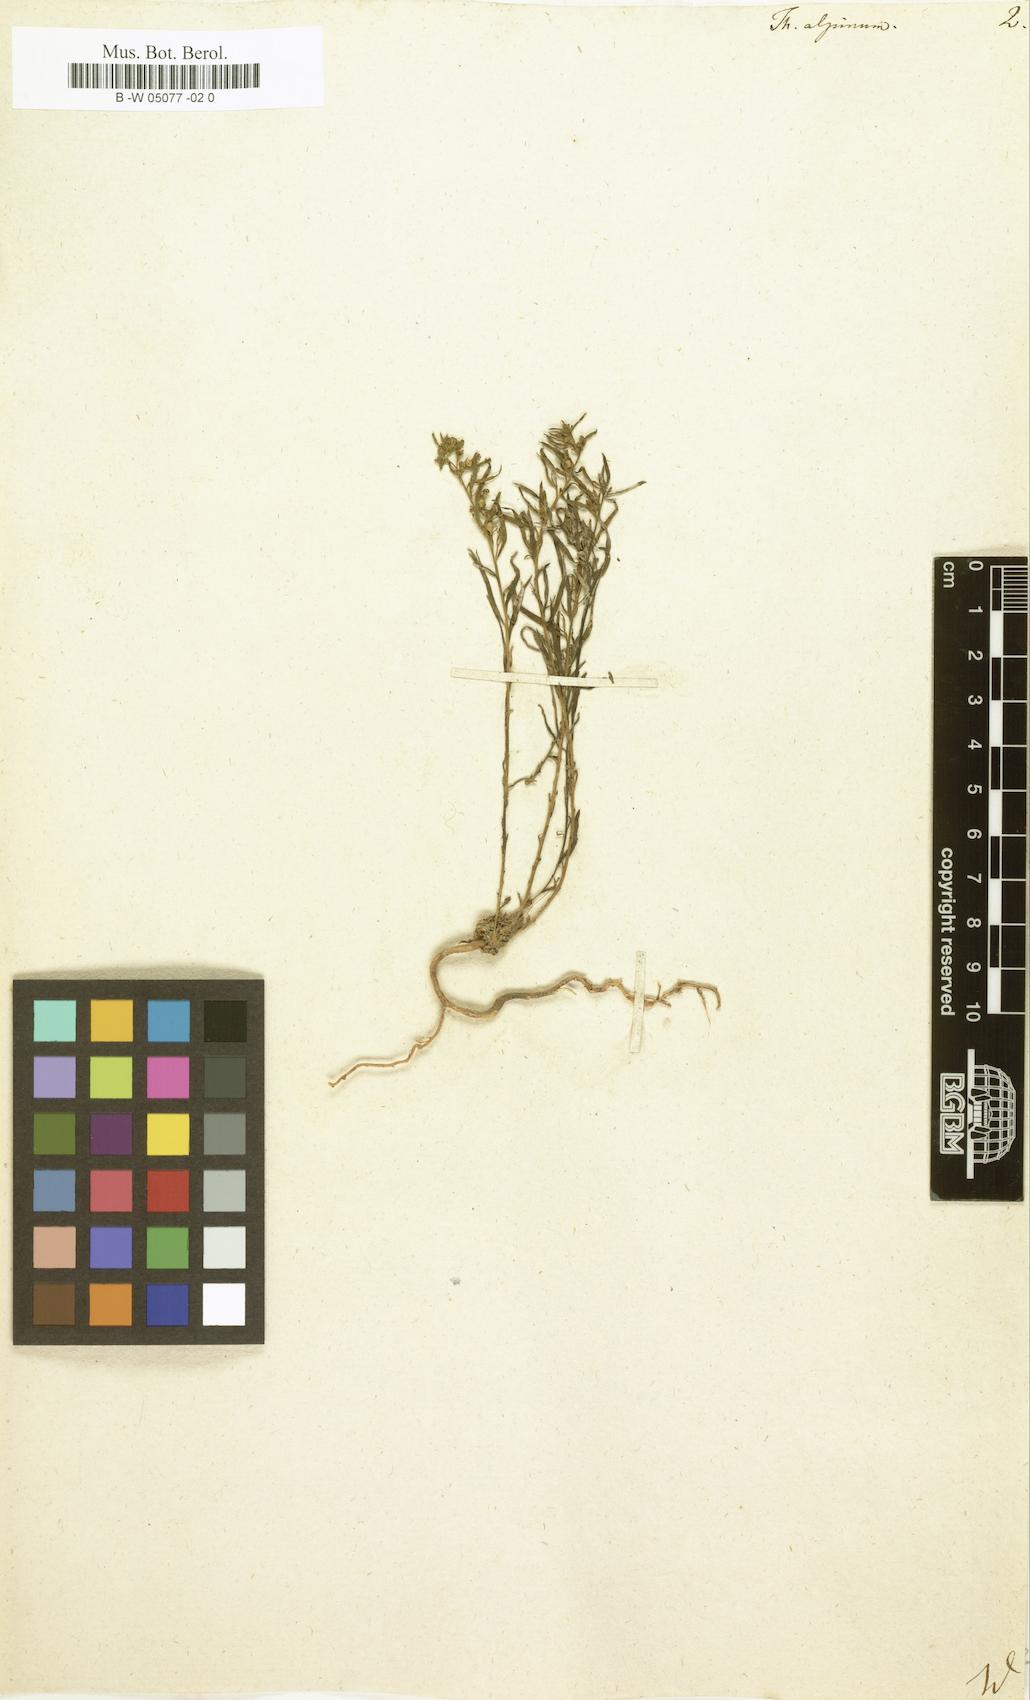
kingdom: Plantae
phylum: Tracheophyta
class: Magnoliopsida
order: Santalales
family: Thesiaceae
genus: Thesium
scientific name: Thesium alpinum
